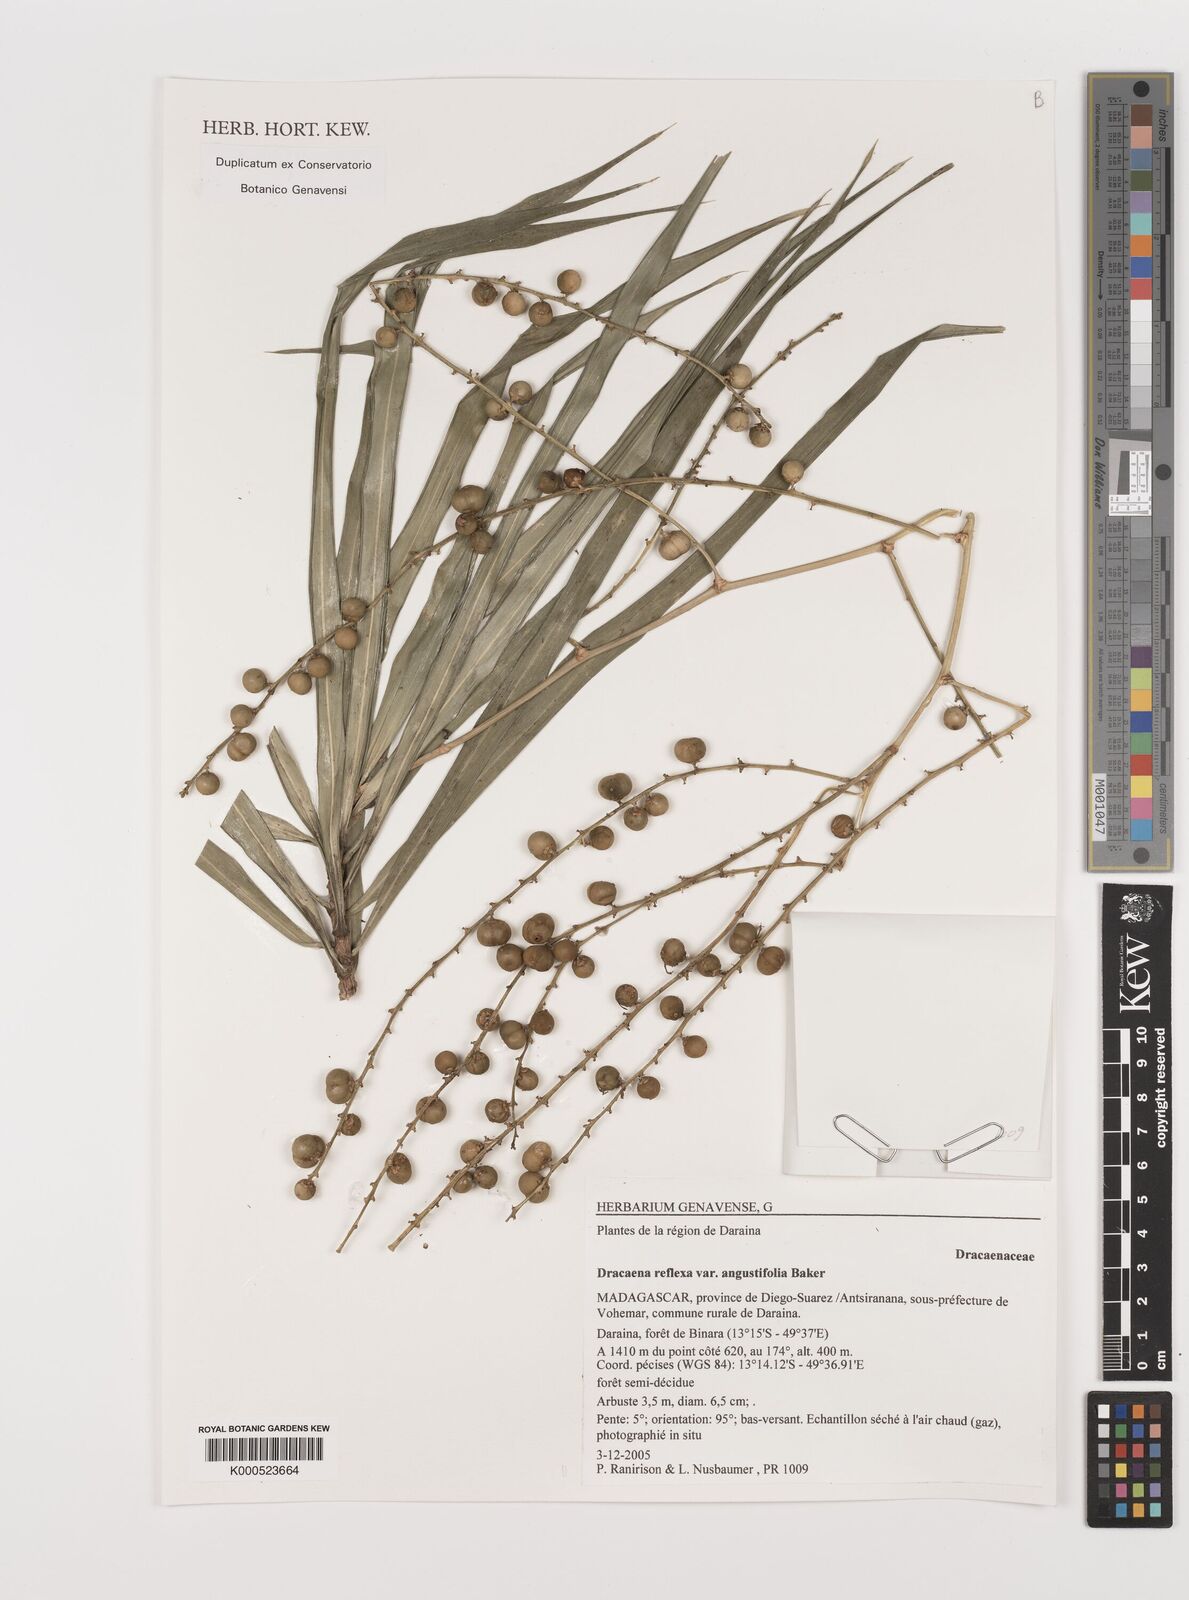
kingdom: Plantae
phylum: Tracheophyta
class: Liliopsida
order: Asparagales
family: Asparagaceae
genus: Dracaena
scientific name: Dracaena reflexa
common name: Song-of-india
